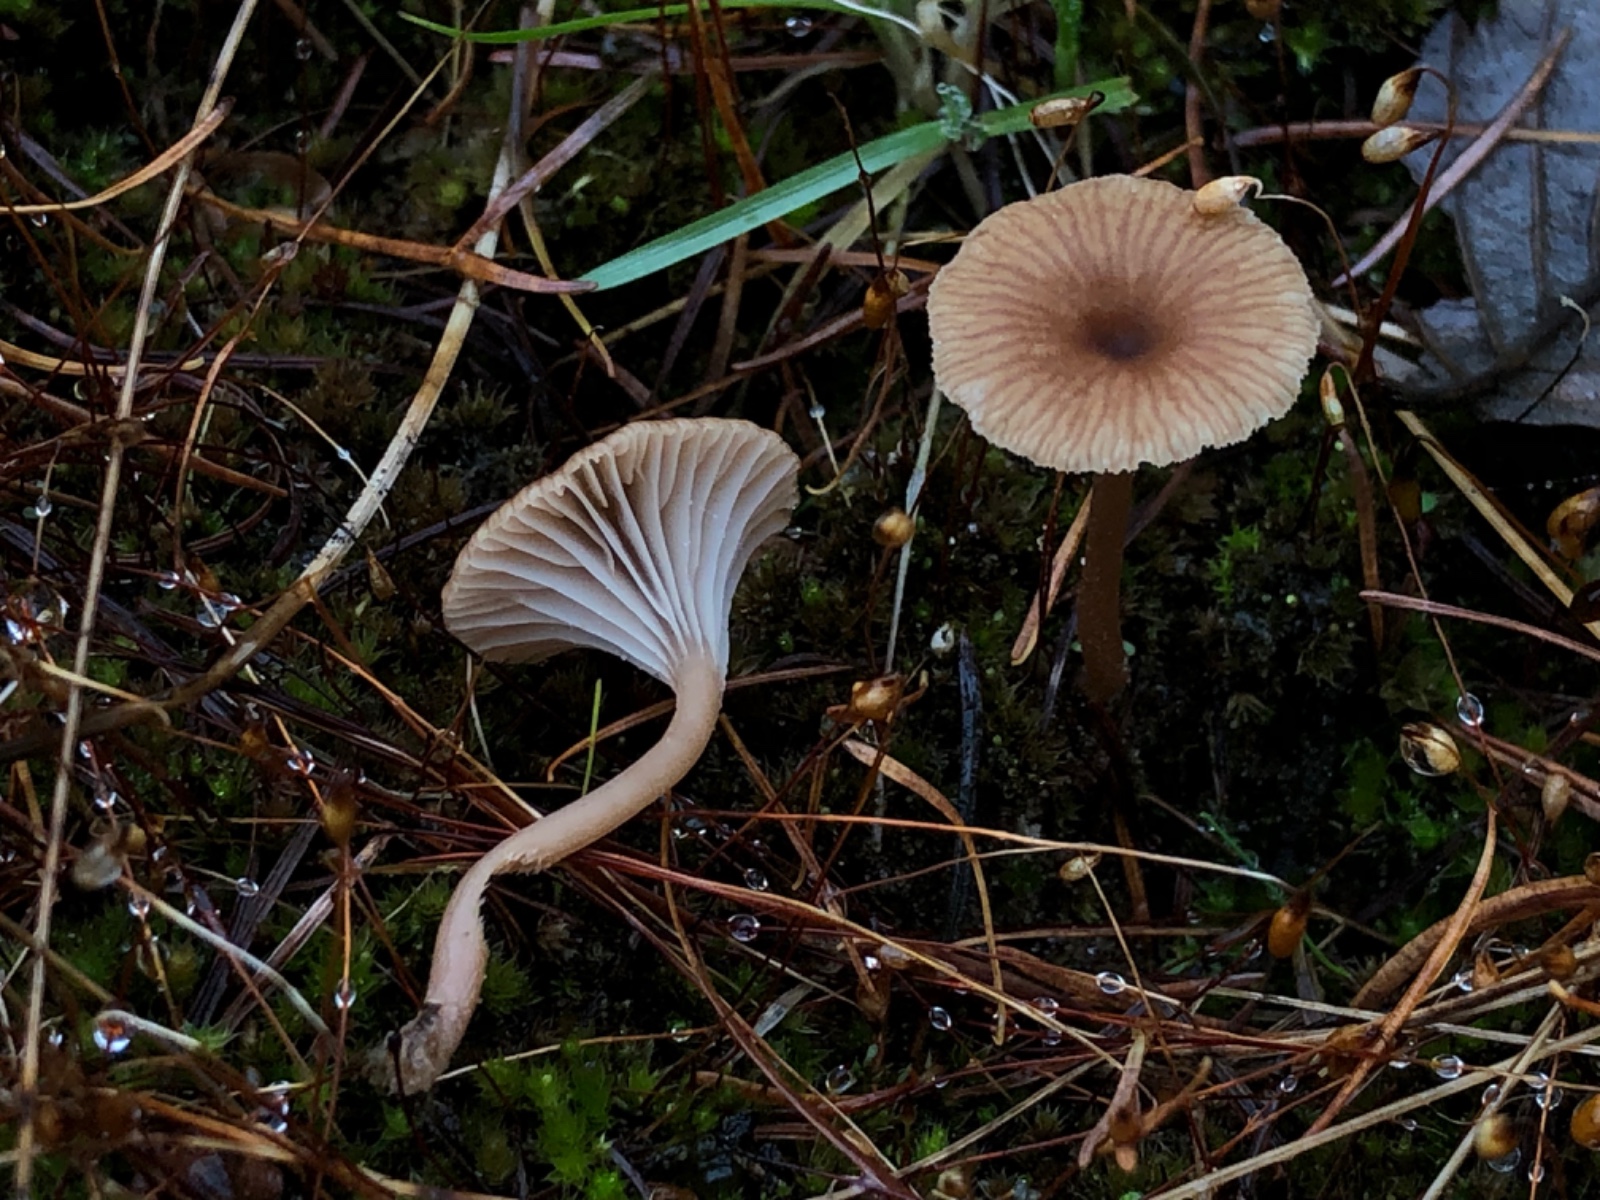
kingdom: Fungi
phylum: Basidiomycota
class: Agaricomycetes
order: Agaricales
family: Tricholomataceae
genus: Omphalina
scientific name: Omphalina pyxidata
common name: rødbrun navlehat
